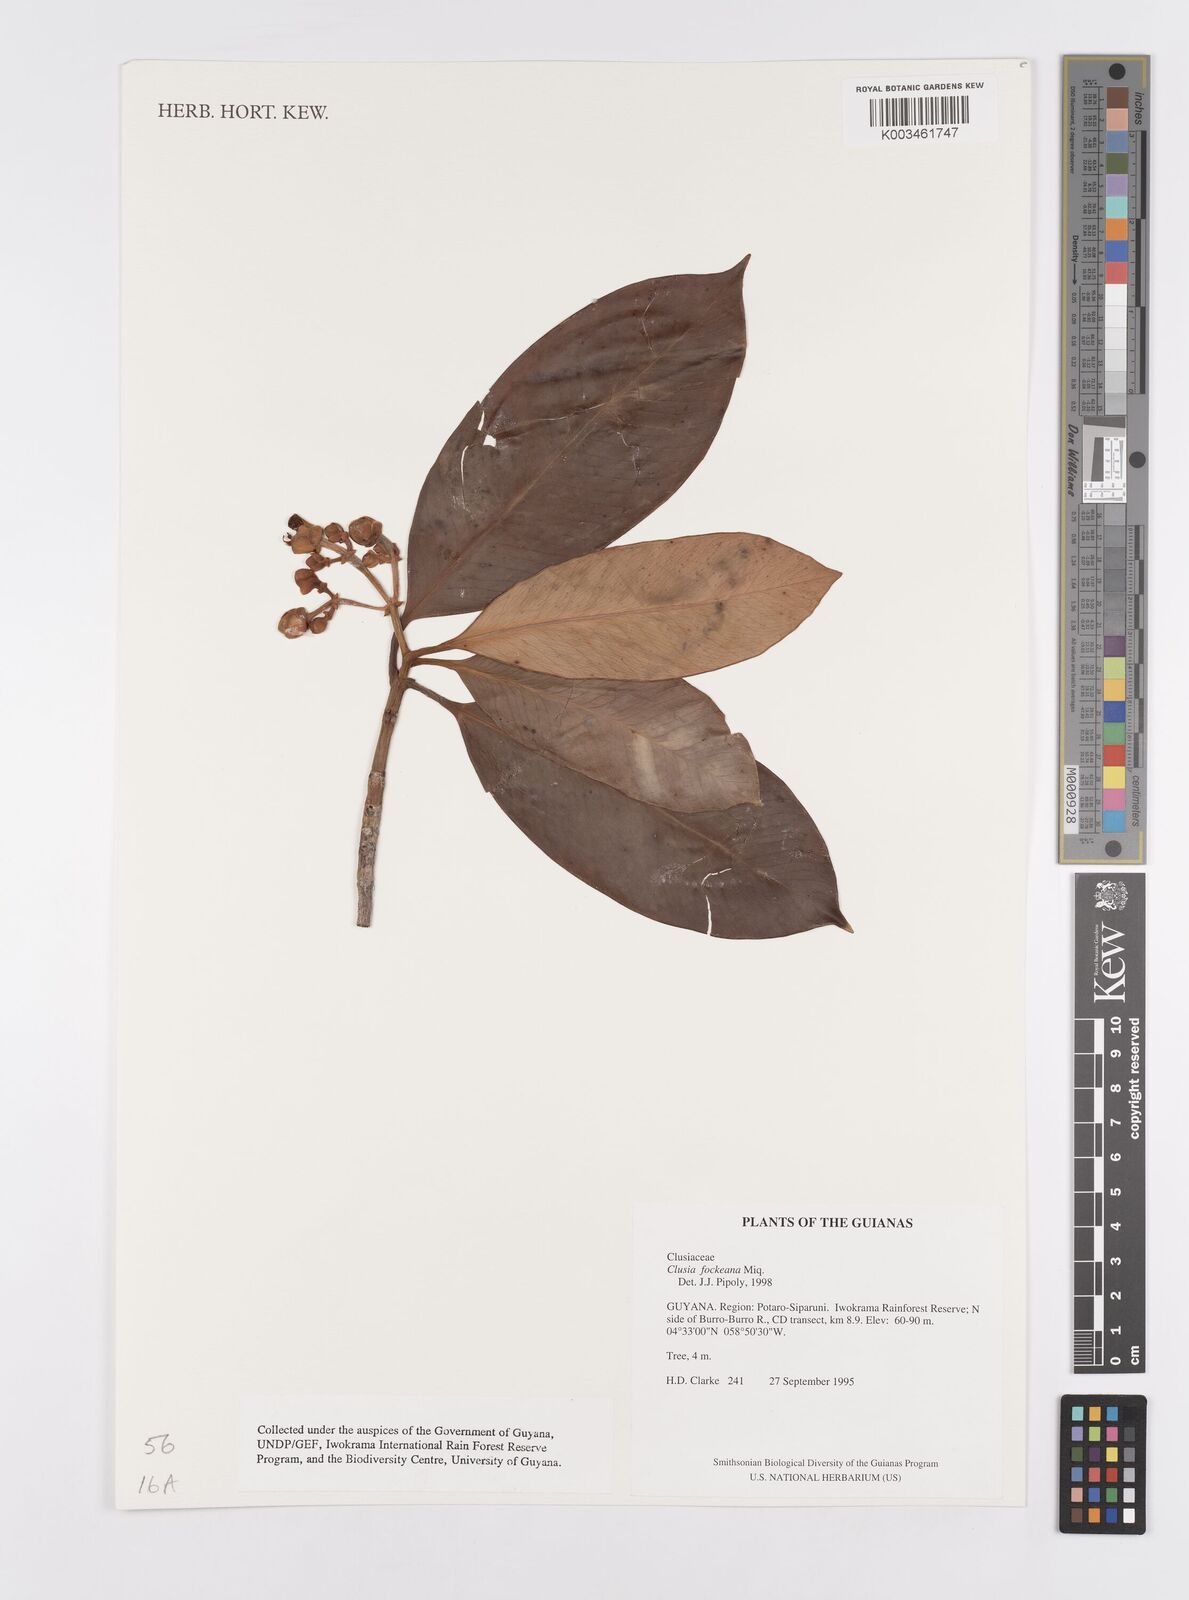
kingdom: Plantae
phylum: Tracheophyta
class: Magnoliopsida
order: Malpighiales
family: Clusiaceae
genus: Clusia
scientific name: Clusia fockeana
